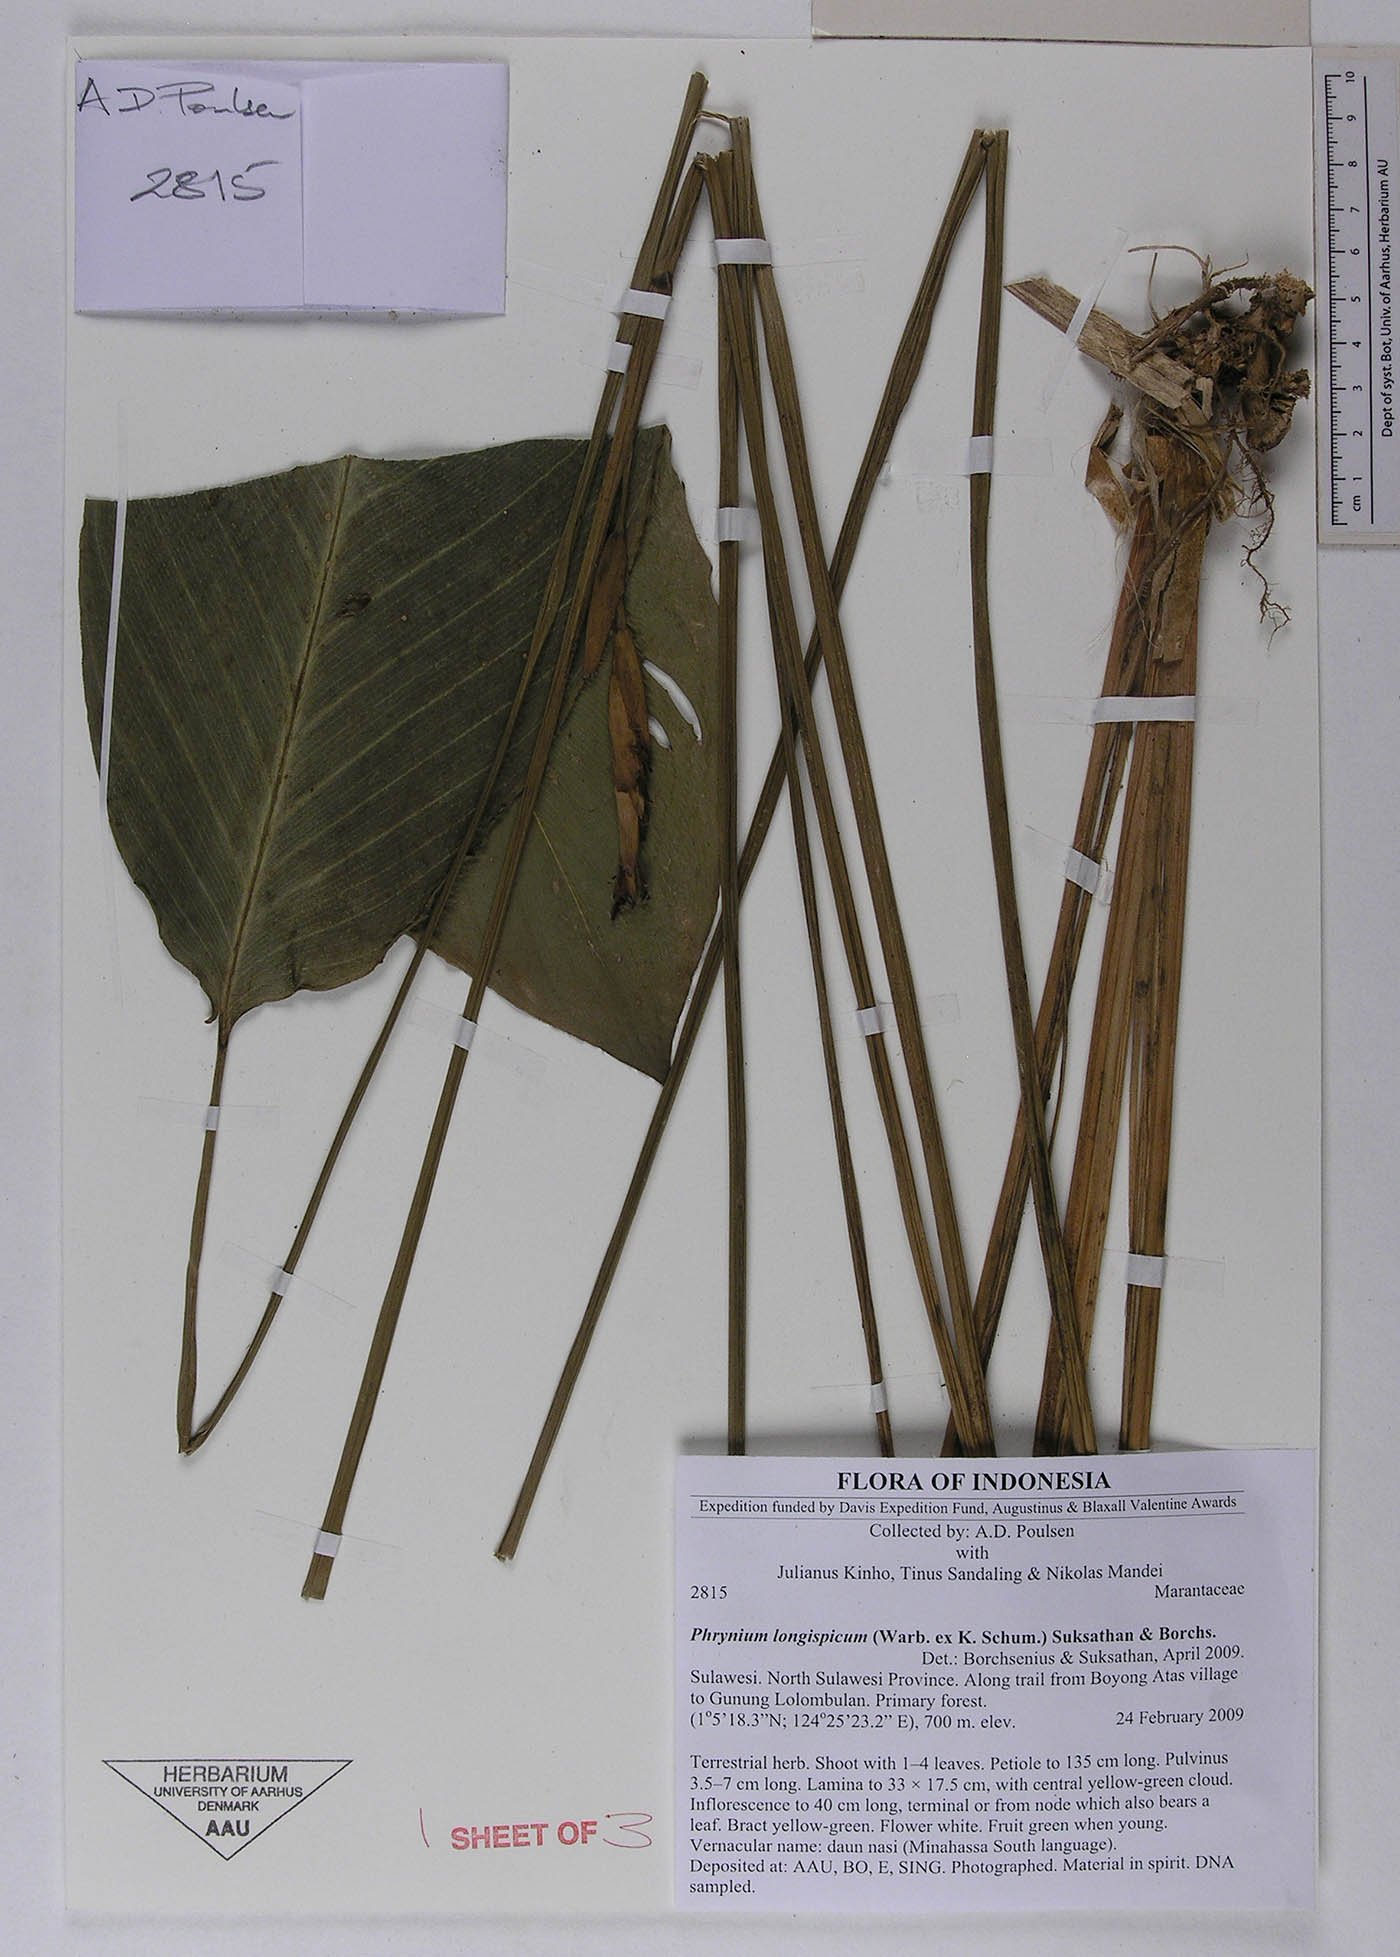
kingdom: Plantae
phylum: Tracheophyta
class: Liliopsida
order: Zingiberales
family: Marantaceae
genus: Phrynium
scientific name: Phrynium longispicum
